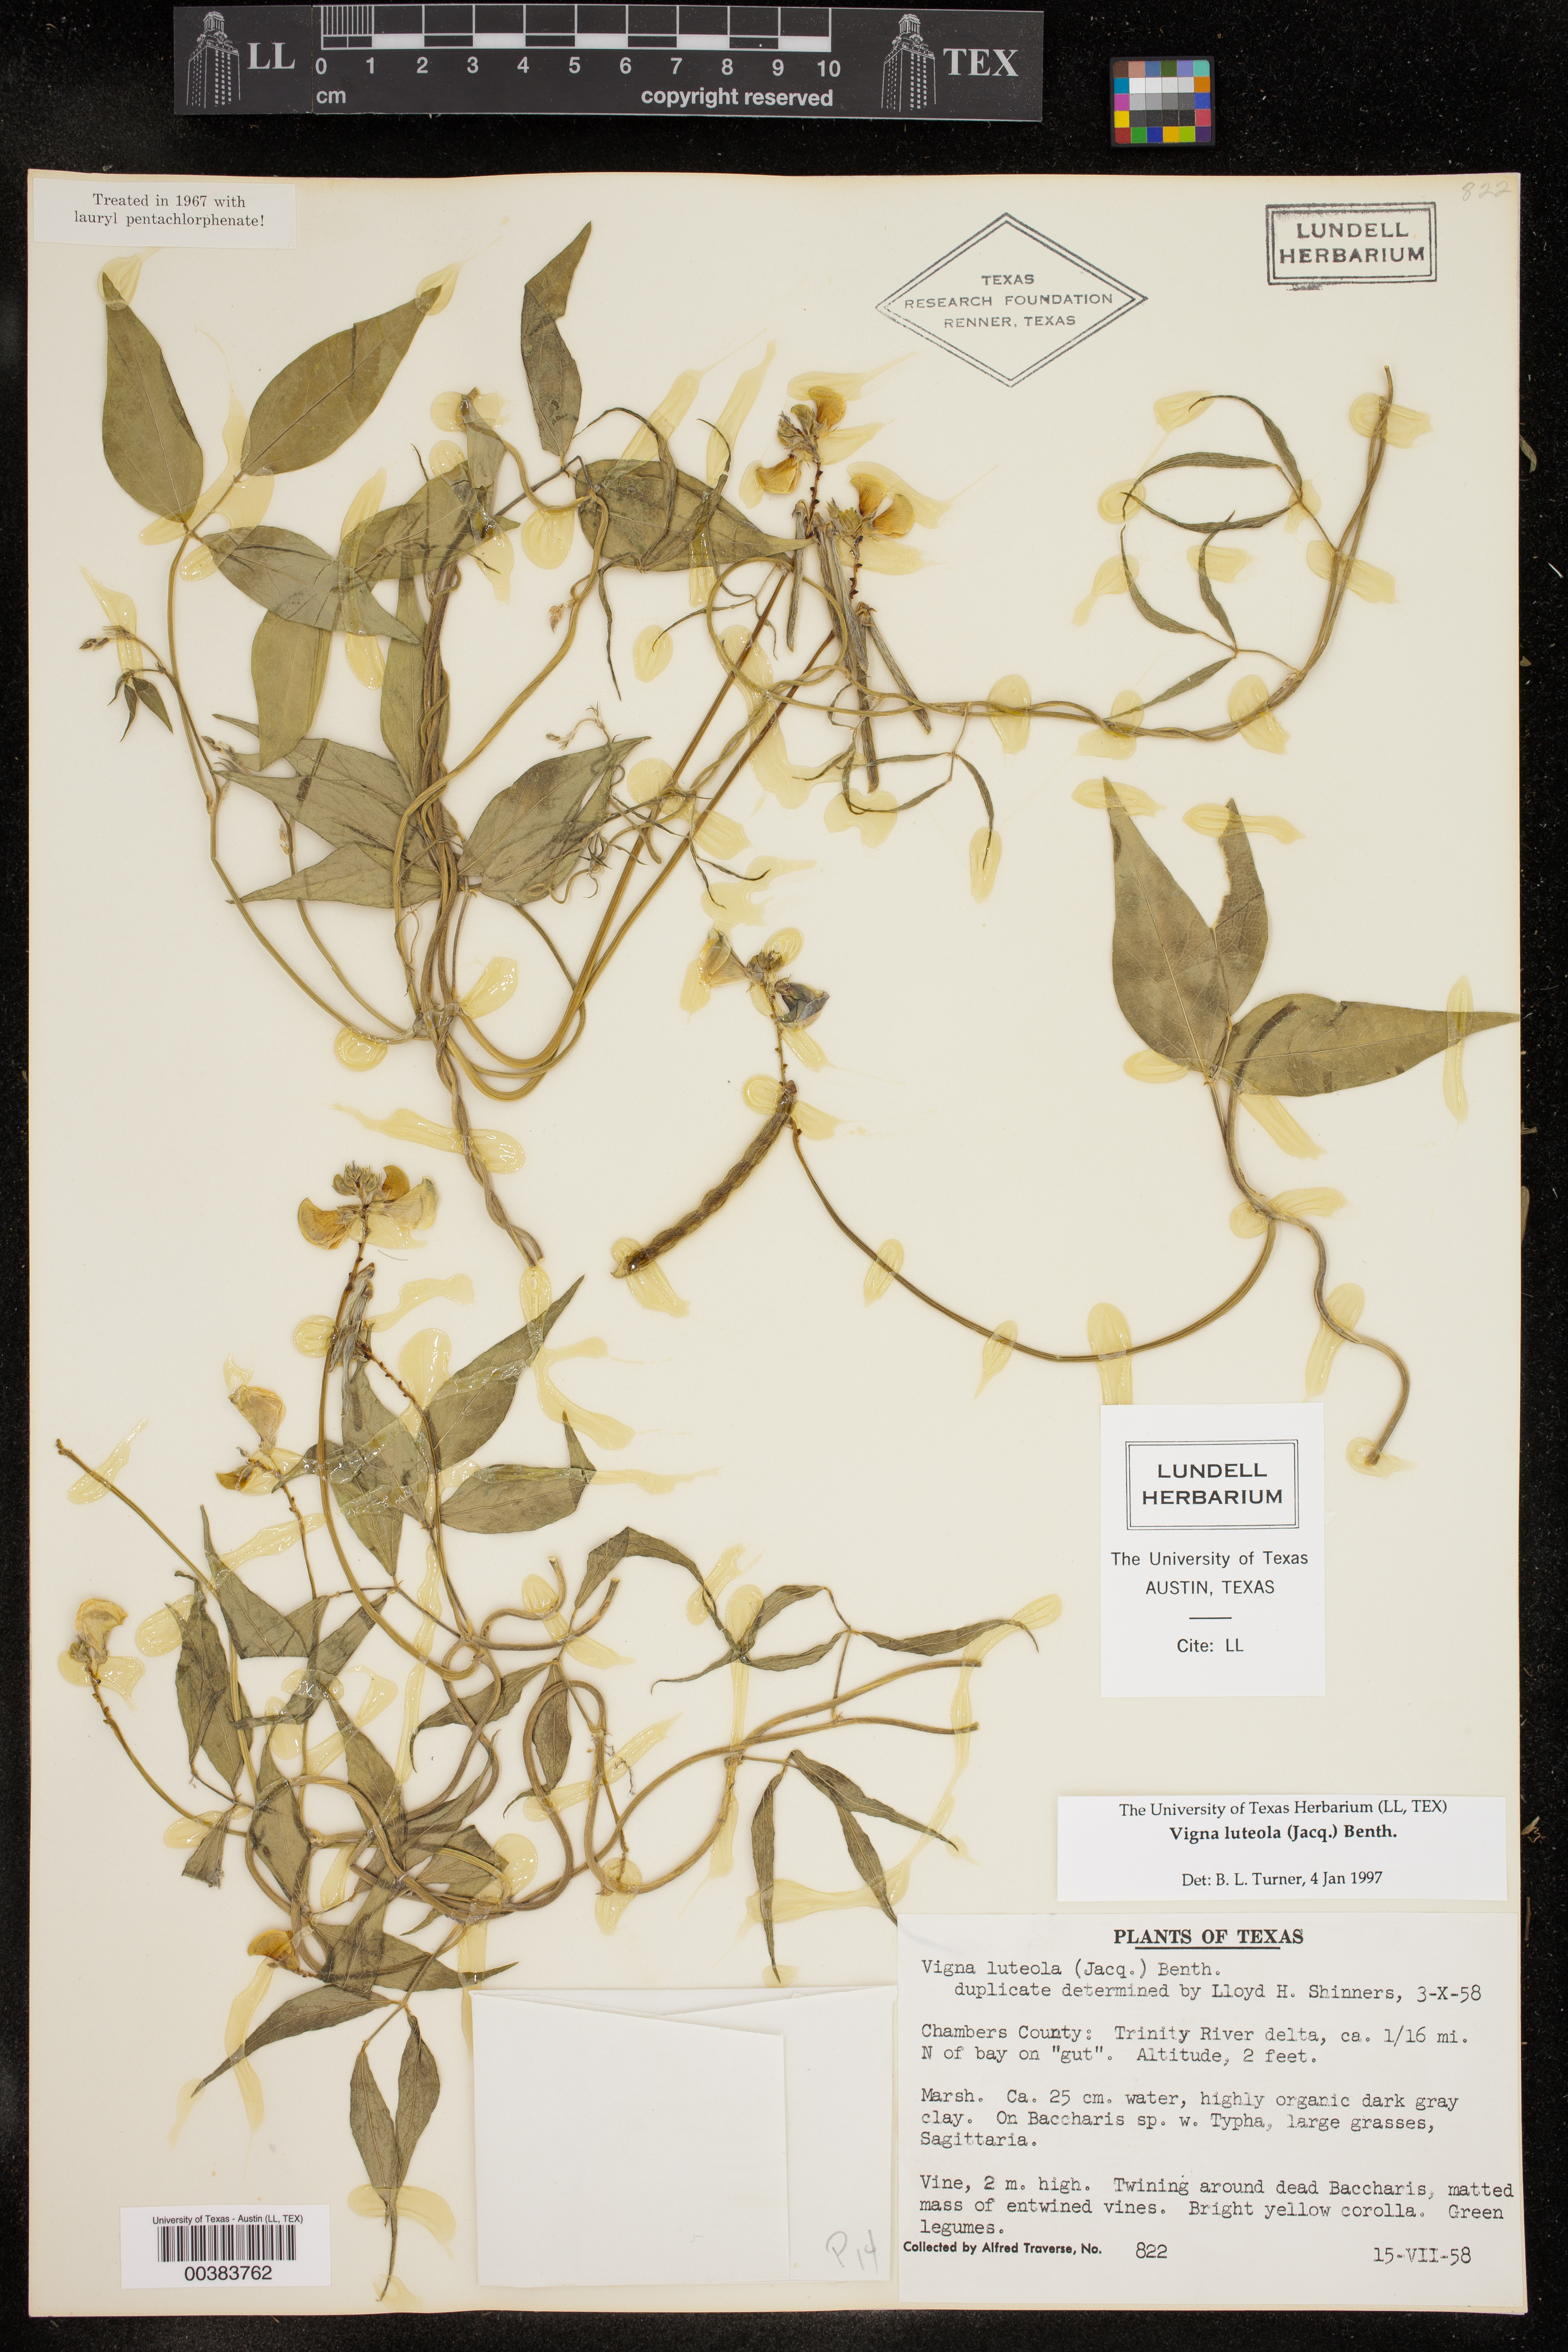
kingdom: Plantae
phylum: Tracheophyta
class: Magnoliopsida
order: Fabales
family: Fabaceae
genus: Vigna
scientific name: Vigna luteola
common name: Hairypod cowpea
